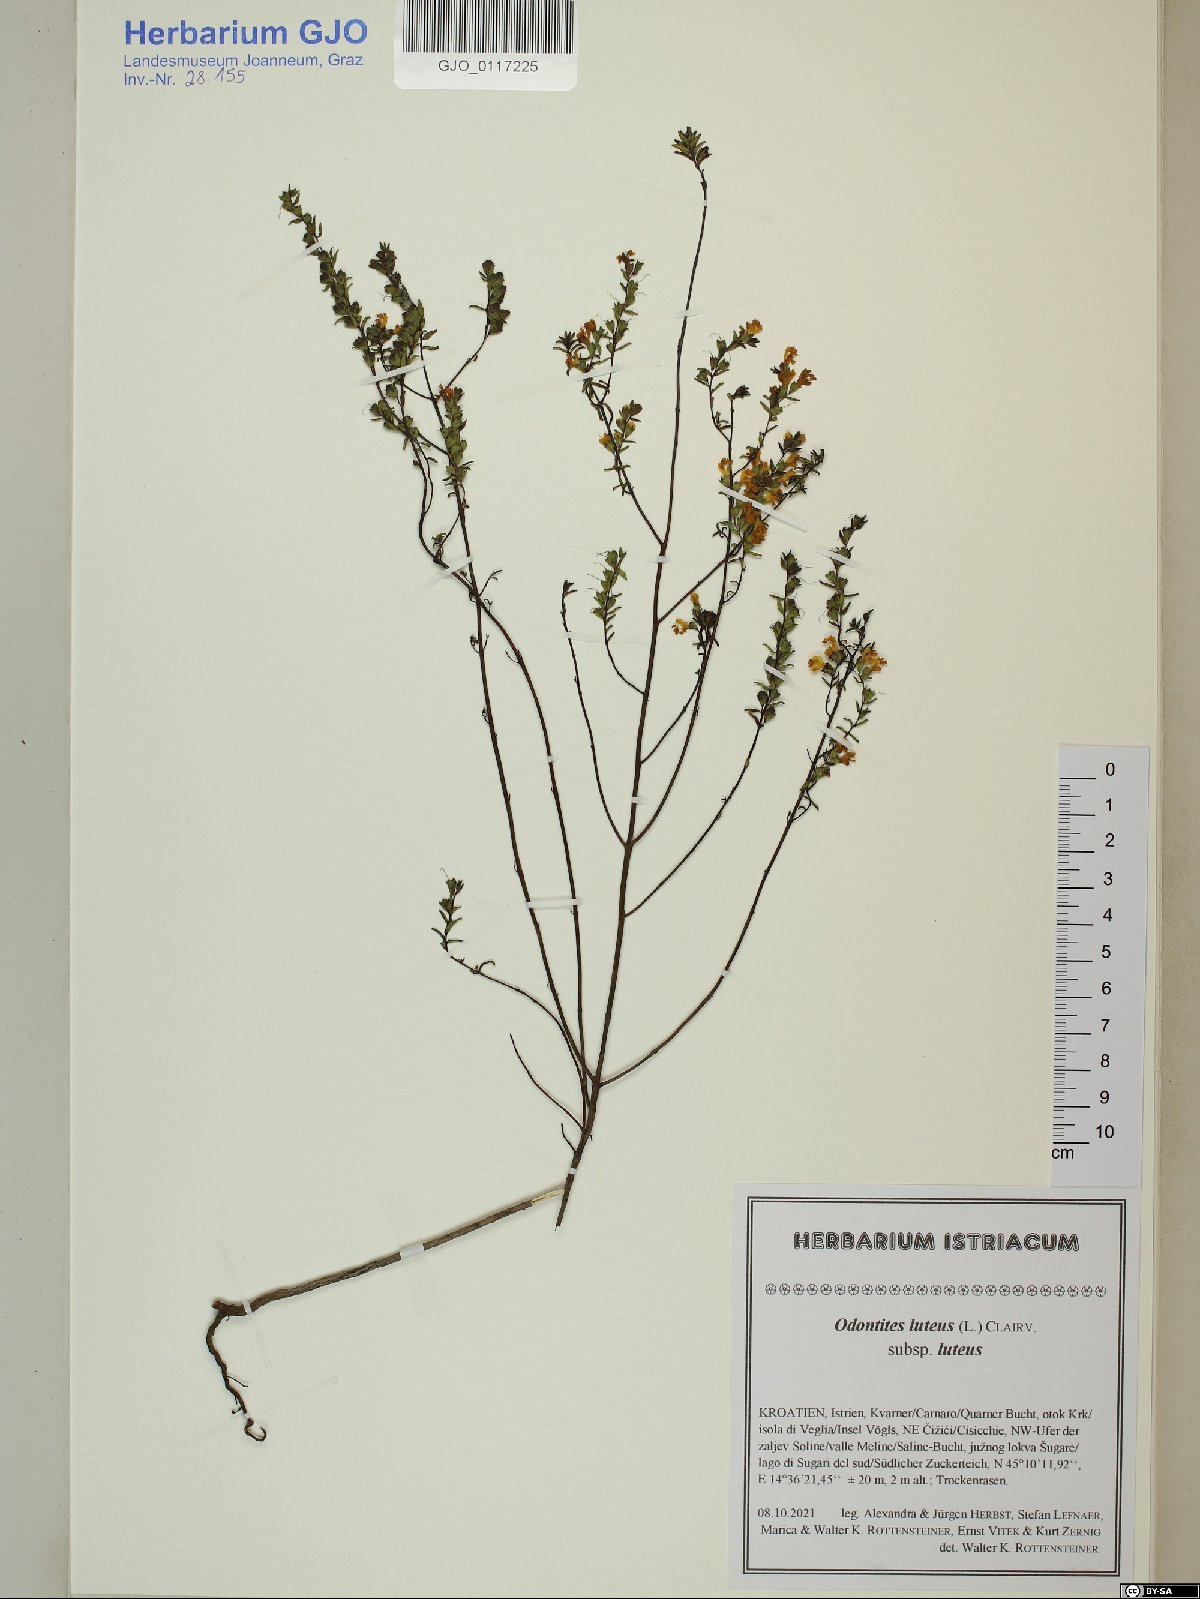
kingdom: Plantae
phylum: Tracheophyta
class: Magnoliopsida
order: Lamiales
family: Orobanchaceae
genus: Odontites
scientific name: Odontites luteus
